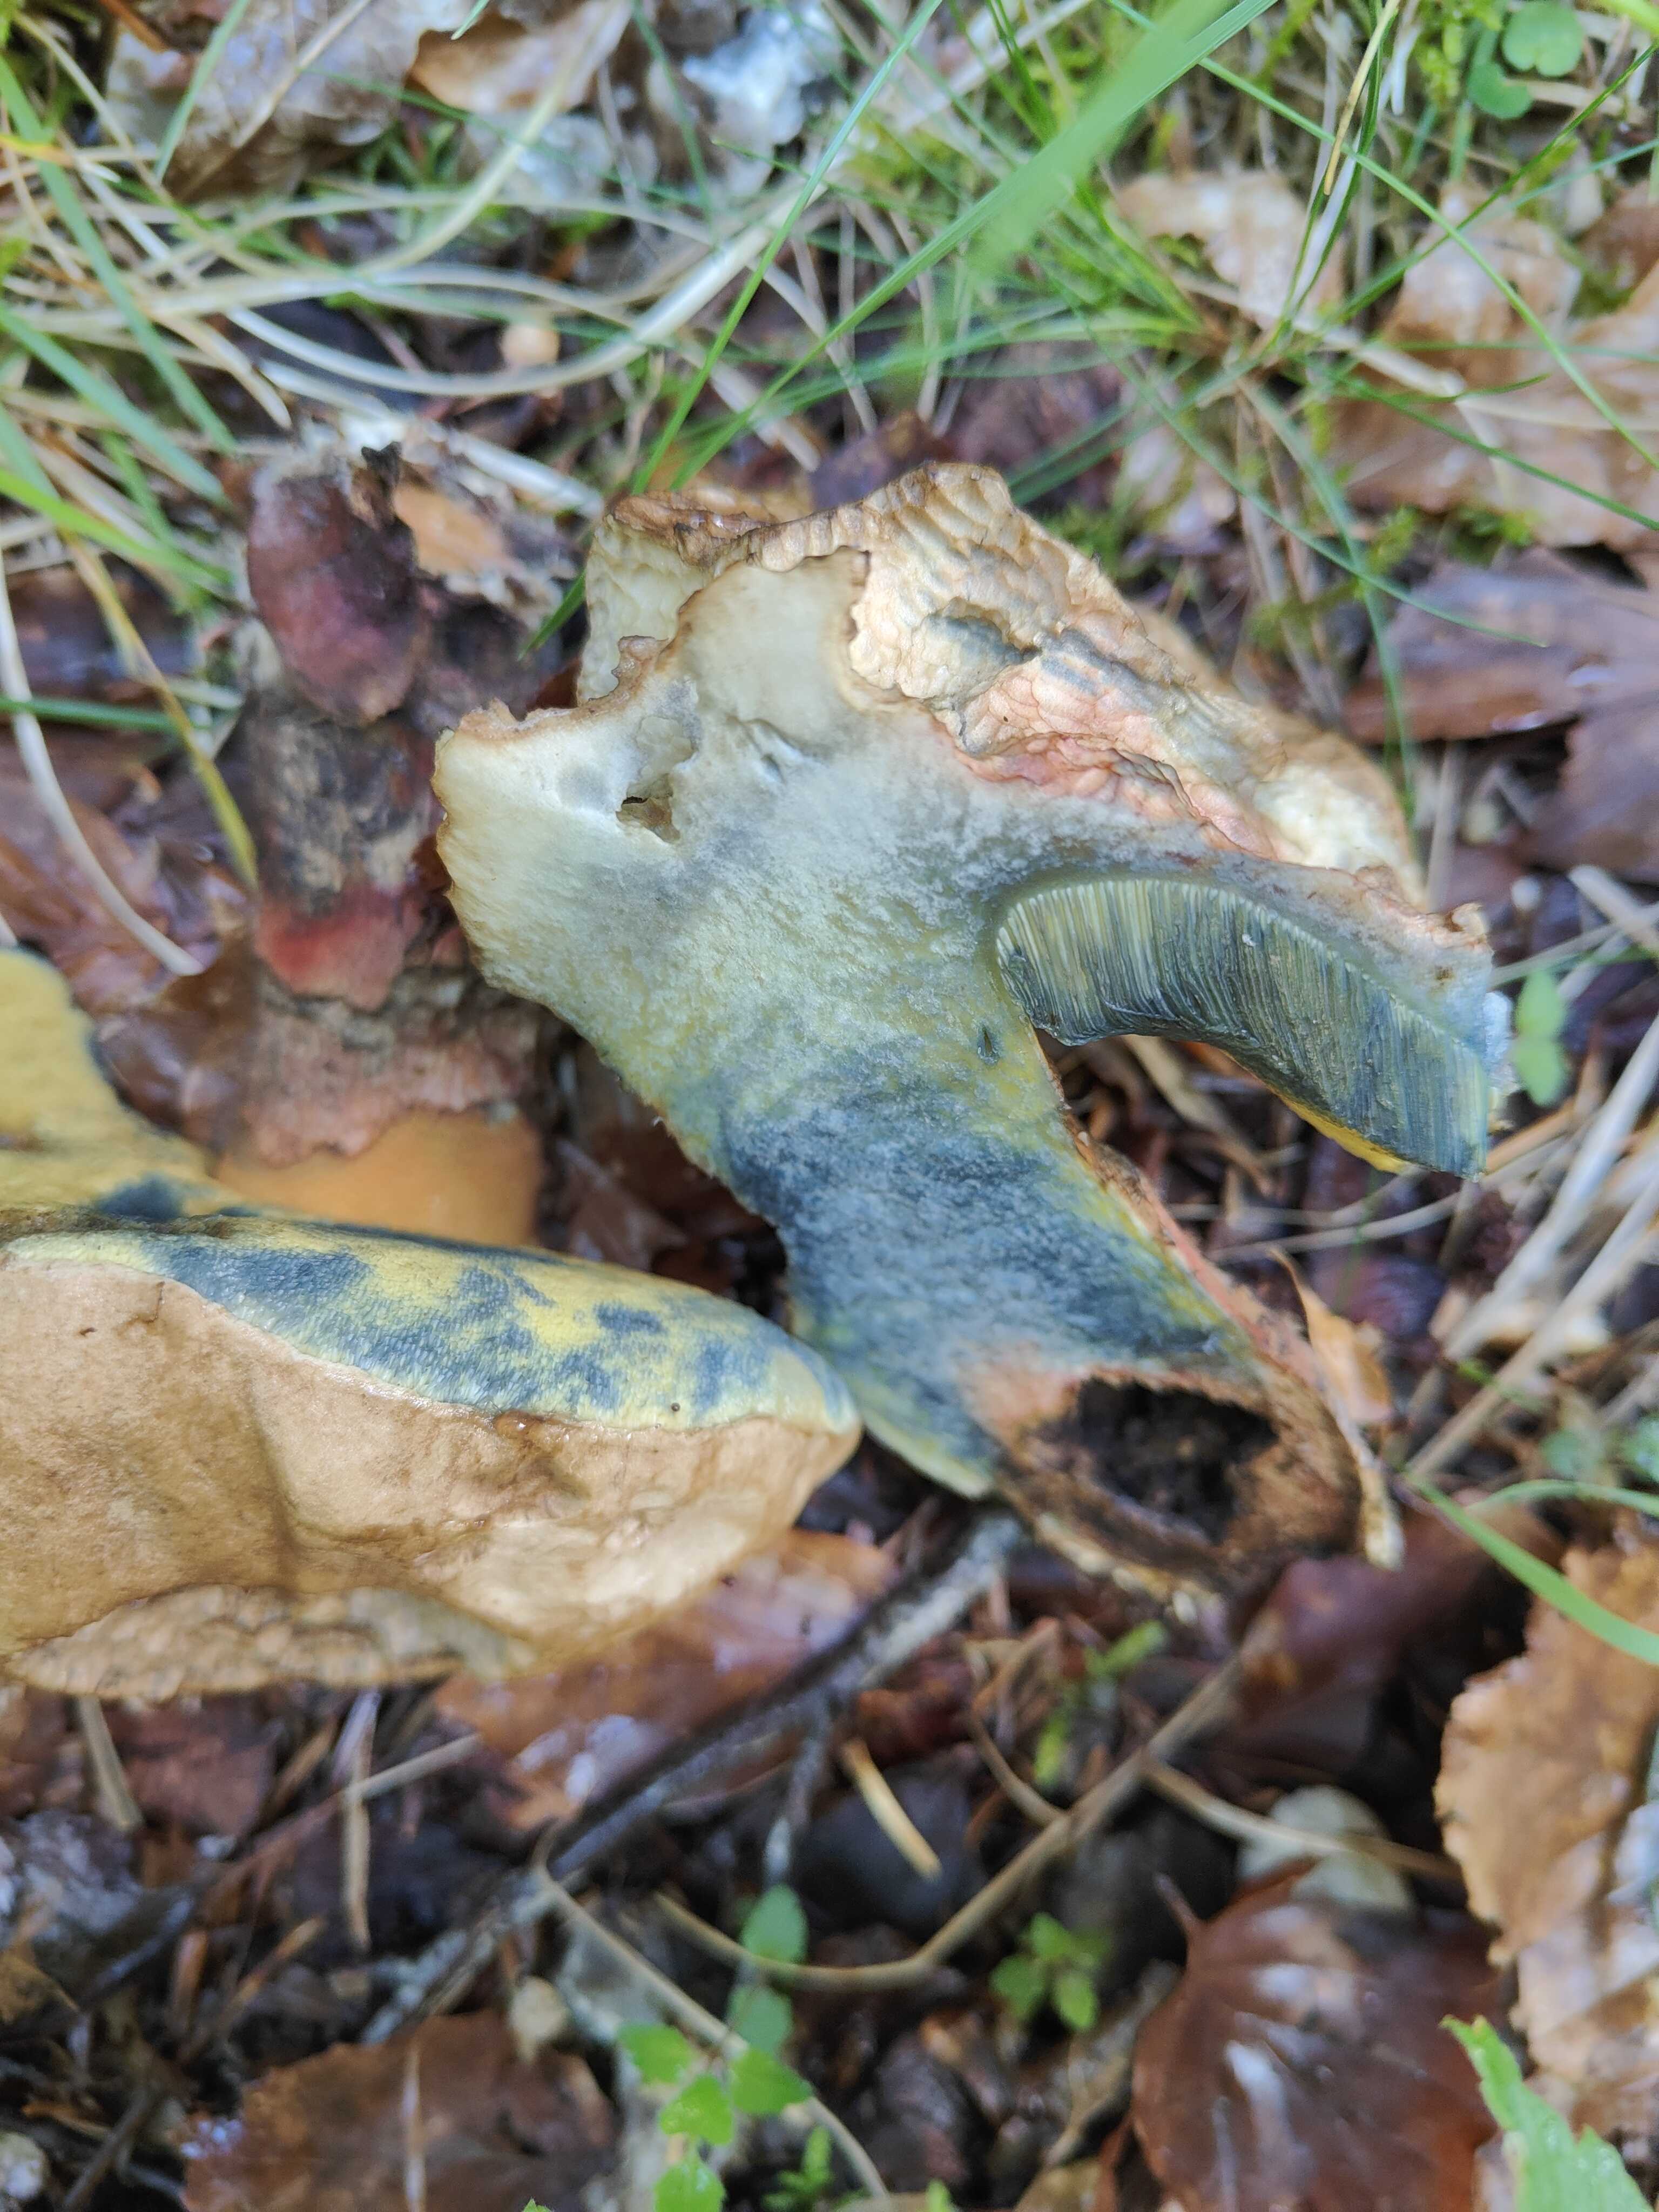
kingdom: Fungi
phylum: Basidiomycota
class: Agaricomycetes
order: Boletales
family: Boletaceae
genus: Caloboletus
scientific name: Caloboletus calopus
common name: skønfodet rørhat
